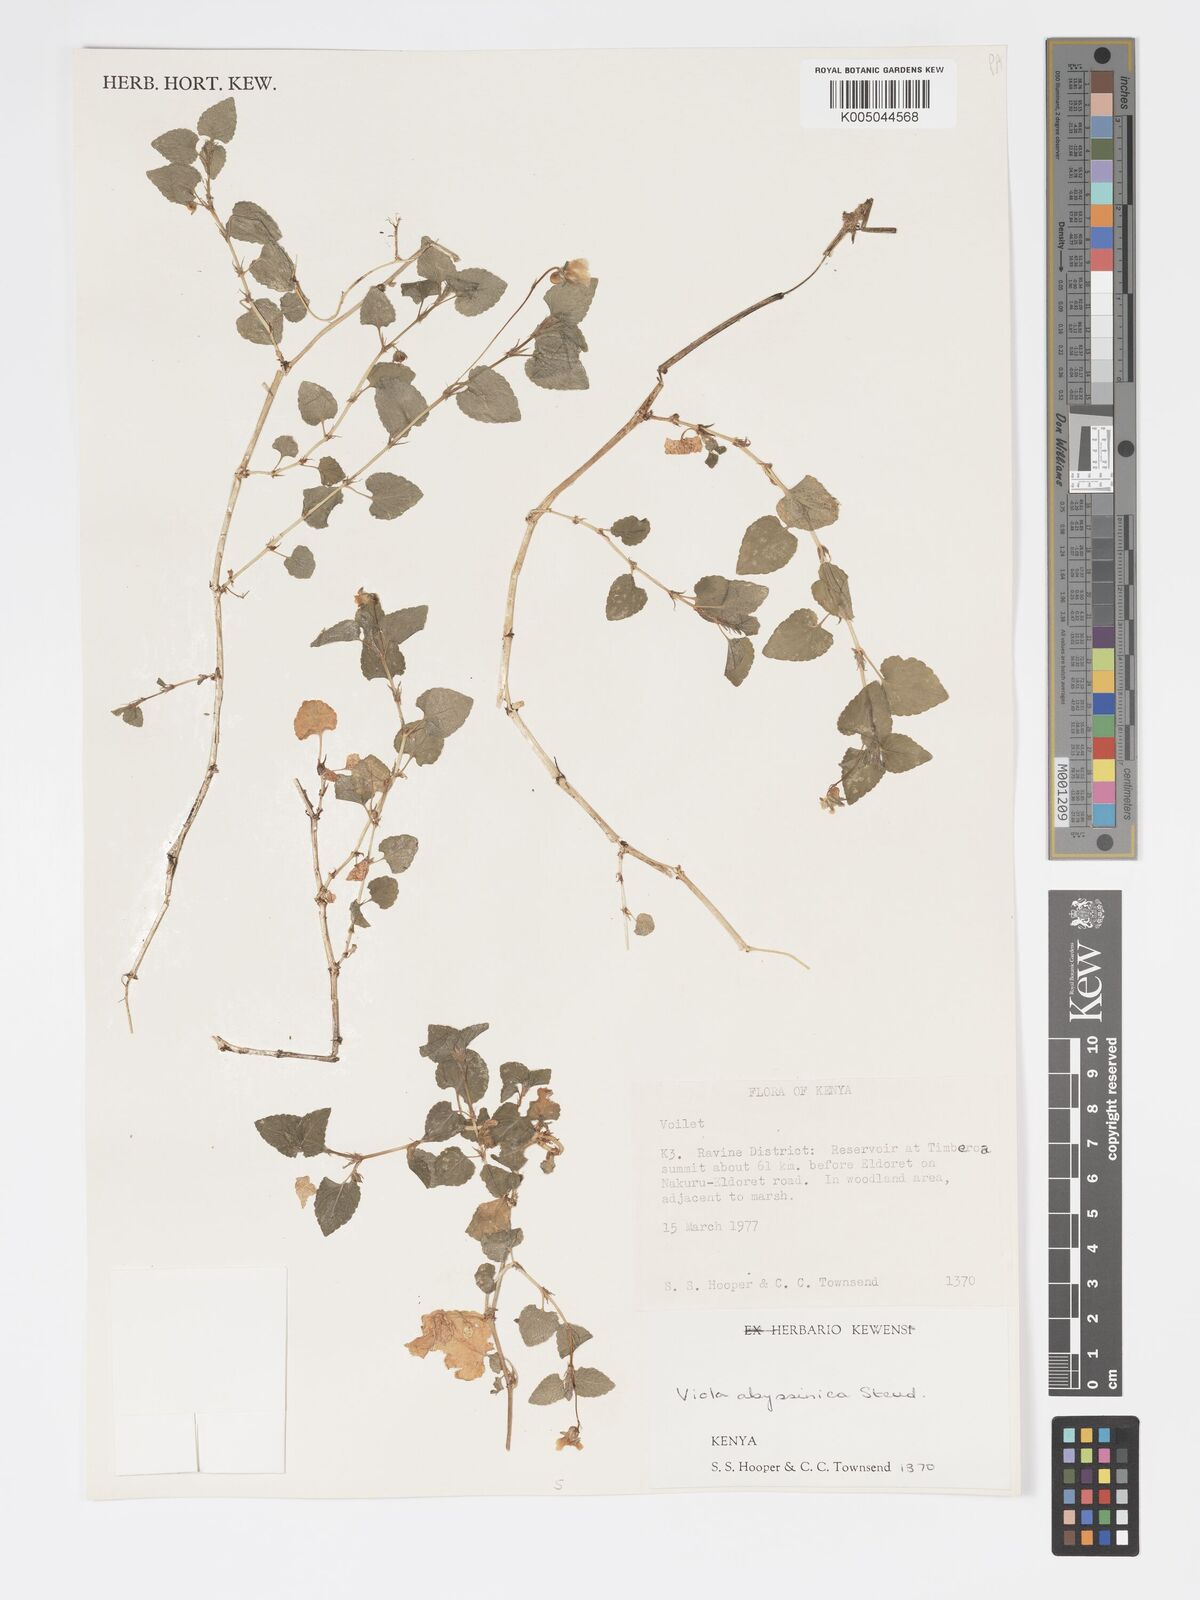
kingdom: Plantae
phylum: Tracheophyta
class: Magnoliopsida
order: Malpighiales
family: Violaceae
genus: Viola
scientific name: Viola abyssinica
